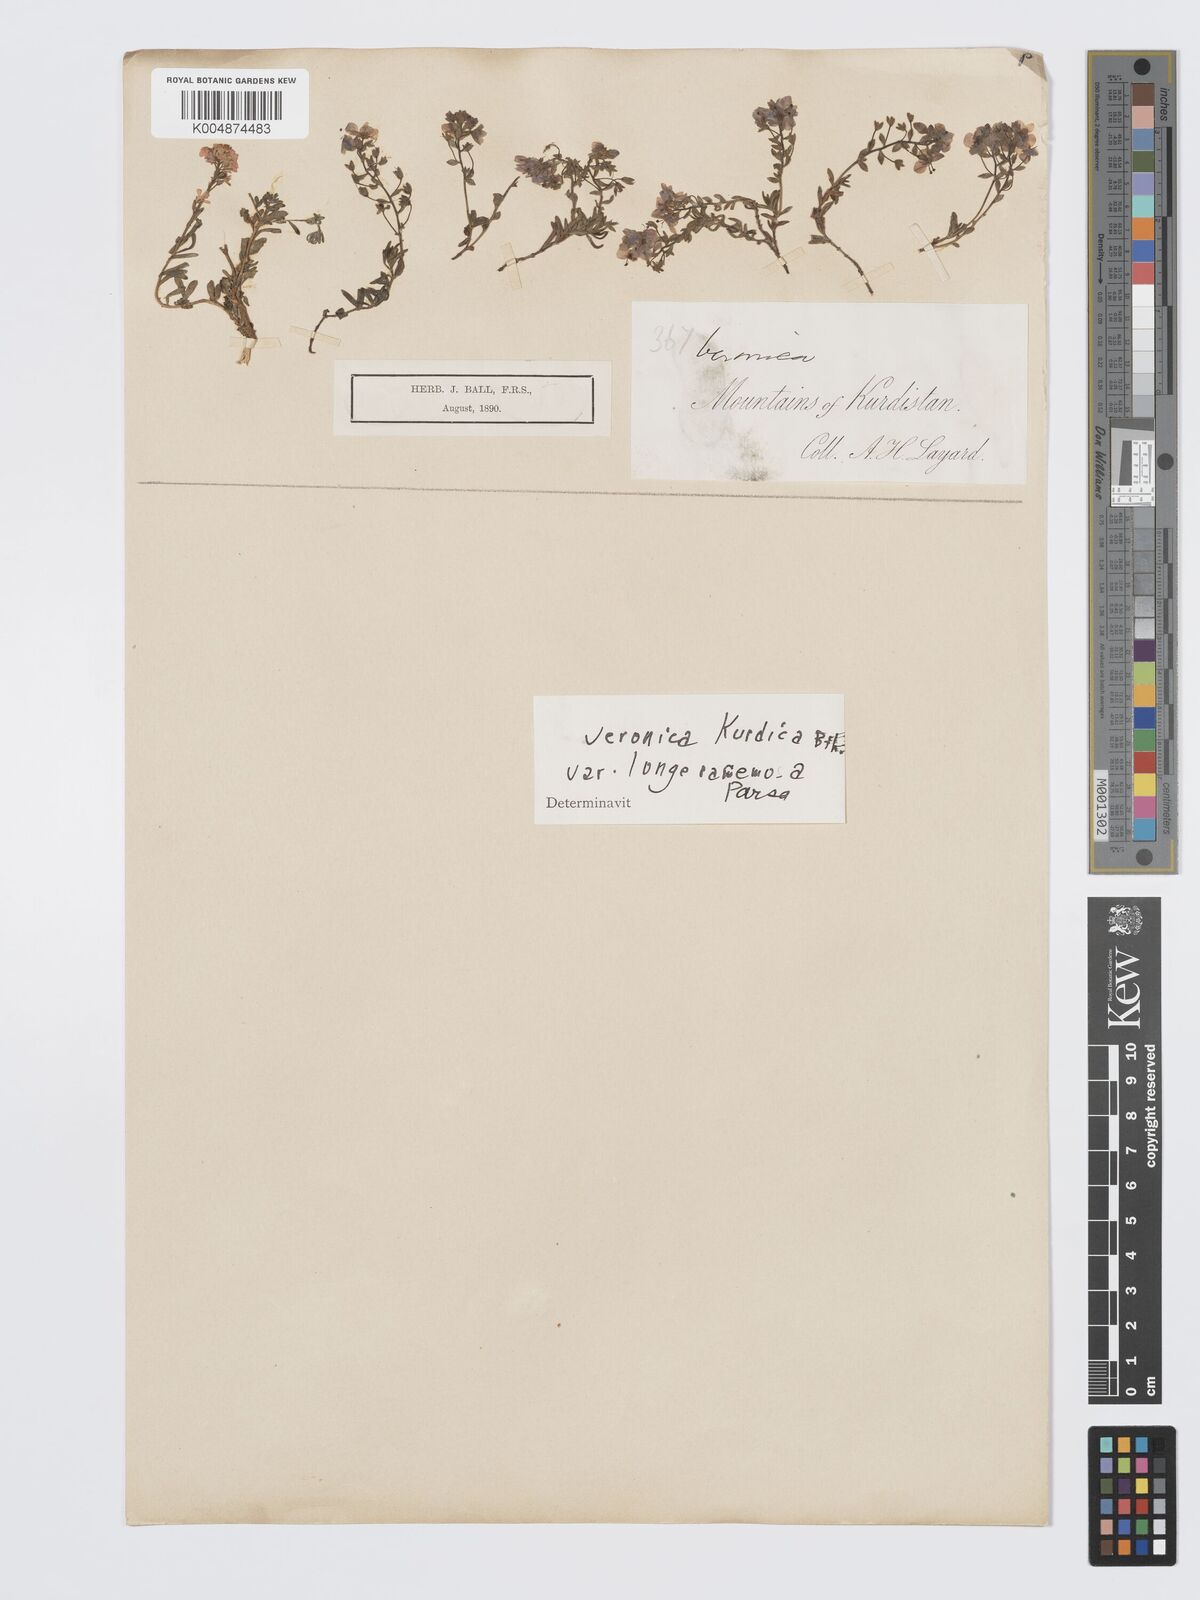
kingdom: Plantae
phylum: Tracheophyta
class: Magnoliopsida
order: Lamiales
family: Plantaginaceae
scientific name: Plantaginaceae
